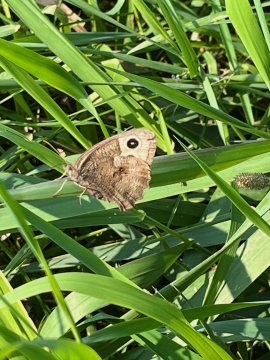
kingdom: Animalia
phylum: Arthropoda
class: Insecta
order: Lepidoptera
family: Nymphalidae
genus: Cercyonis
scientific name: Cercyonis pegala
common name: Common Wood-Nymph
